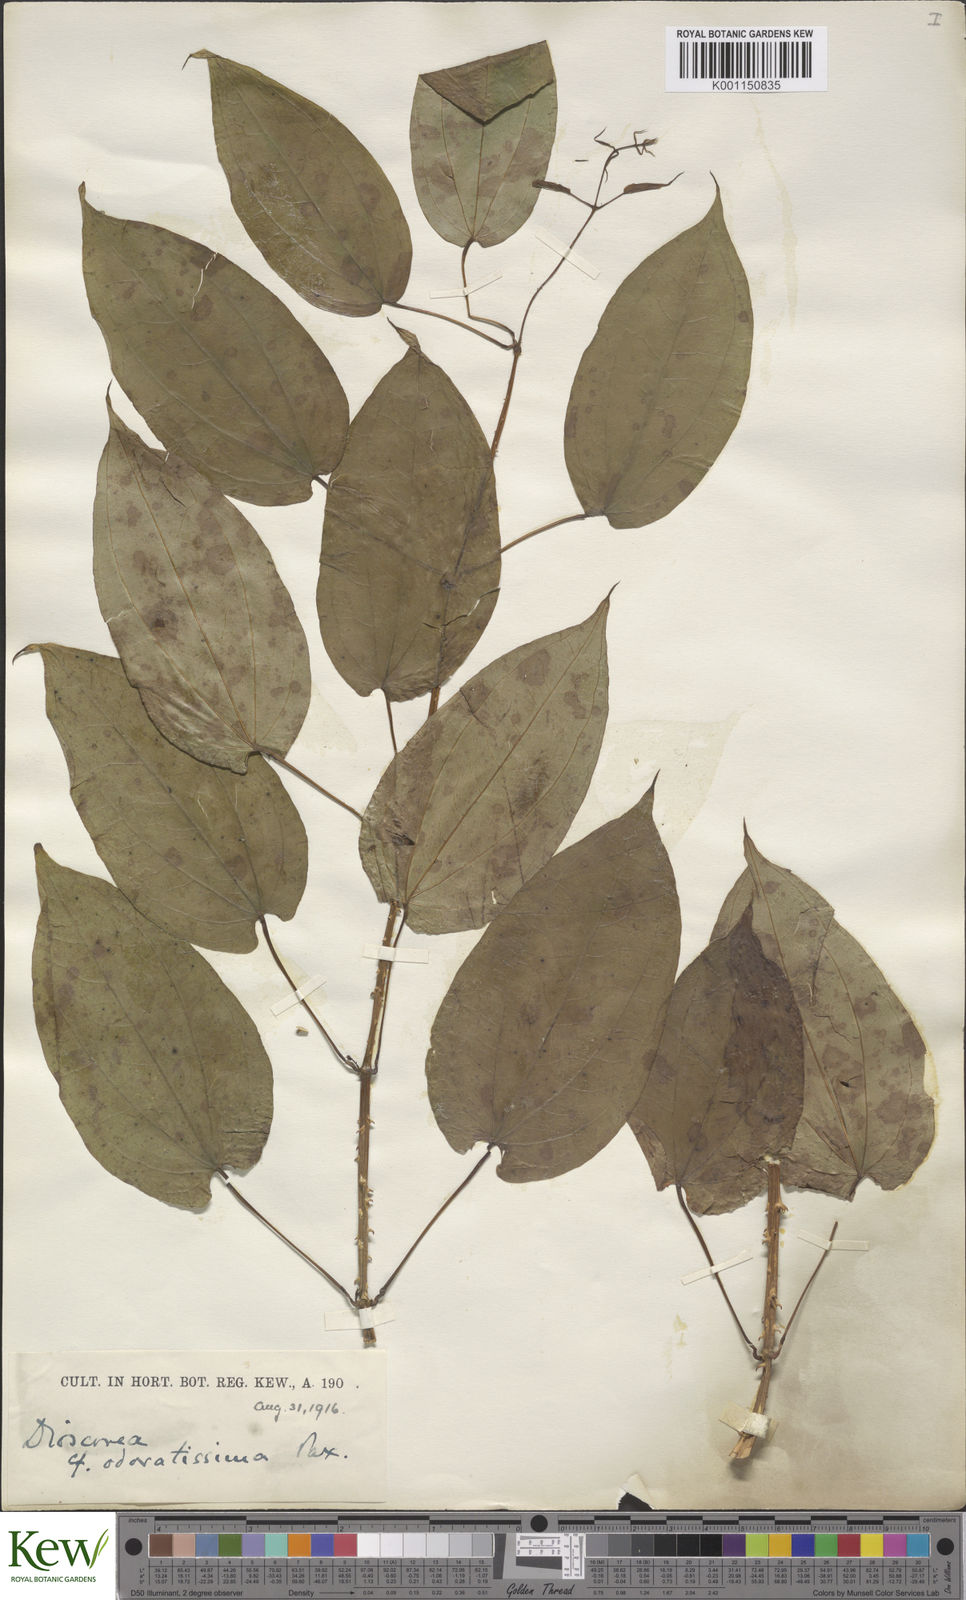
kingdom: Plantae
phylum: Tracheophyta
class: Liliopsida
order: Dioscoreales
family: Dioscoreaceae
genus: Dioscorea
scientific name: Dioscorea praehensilis
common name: Bush yam
